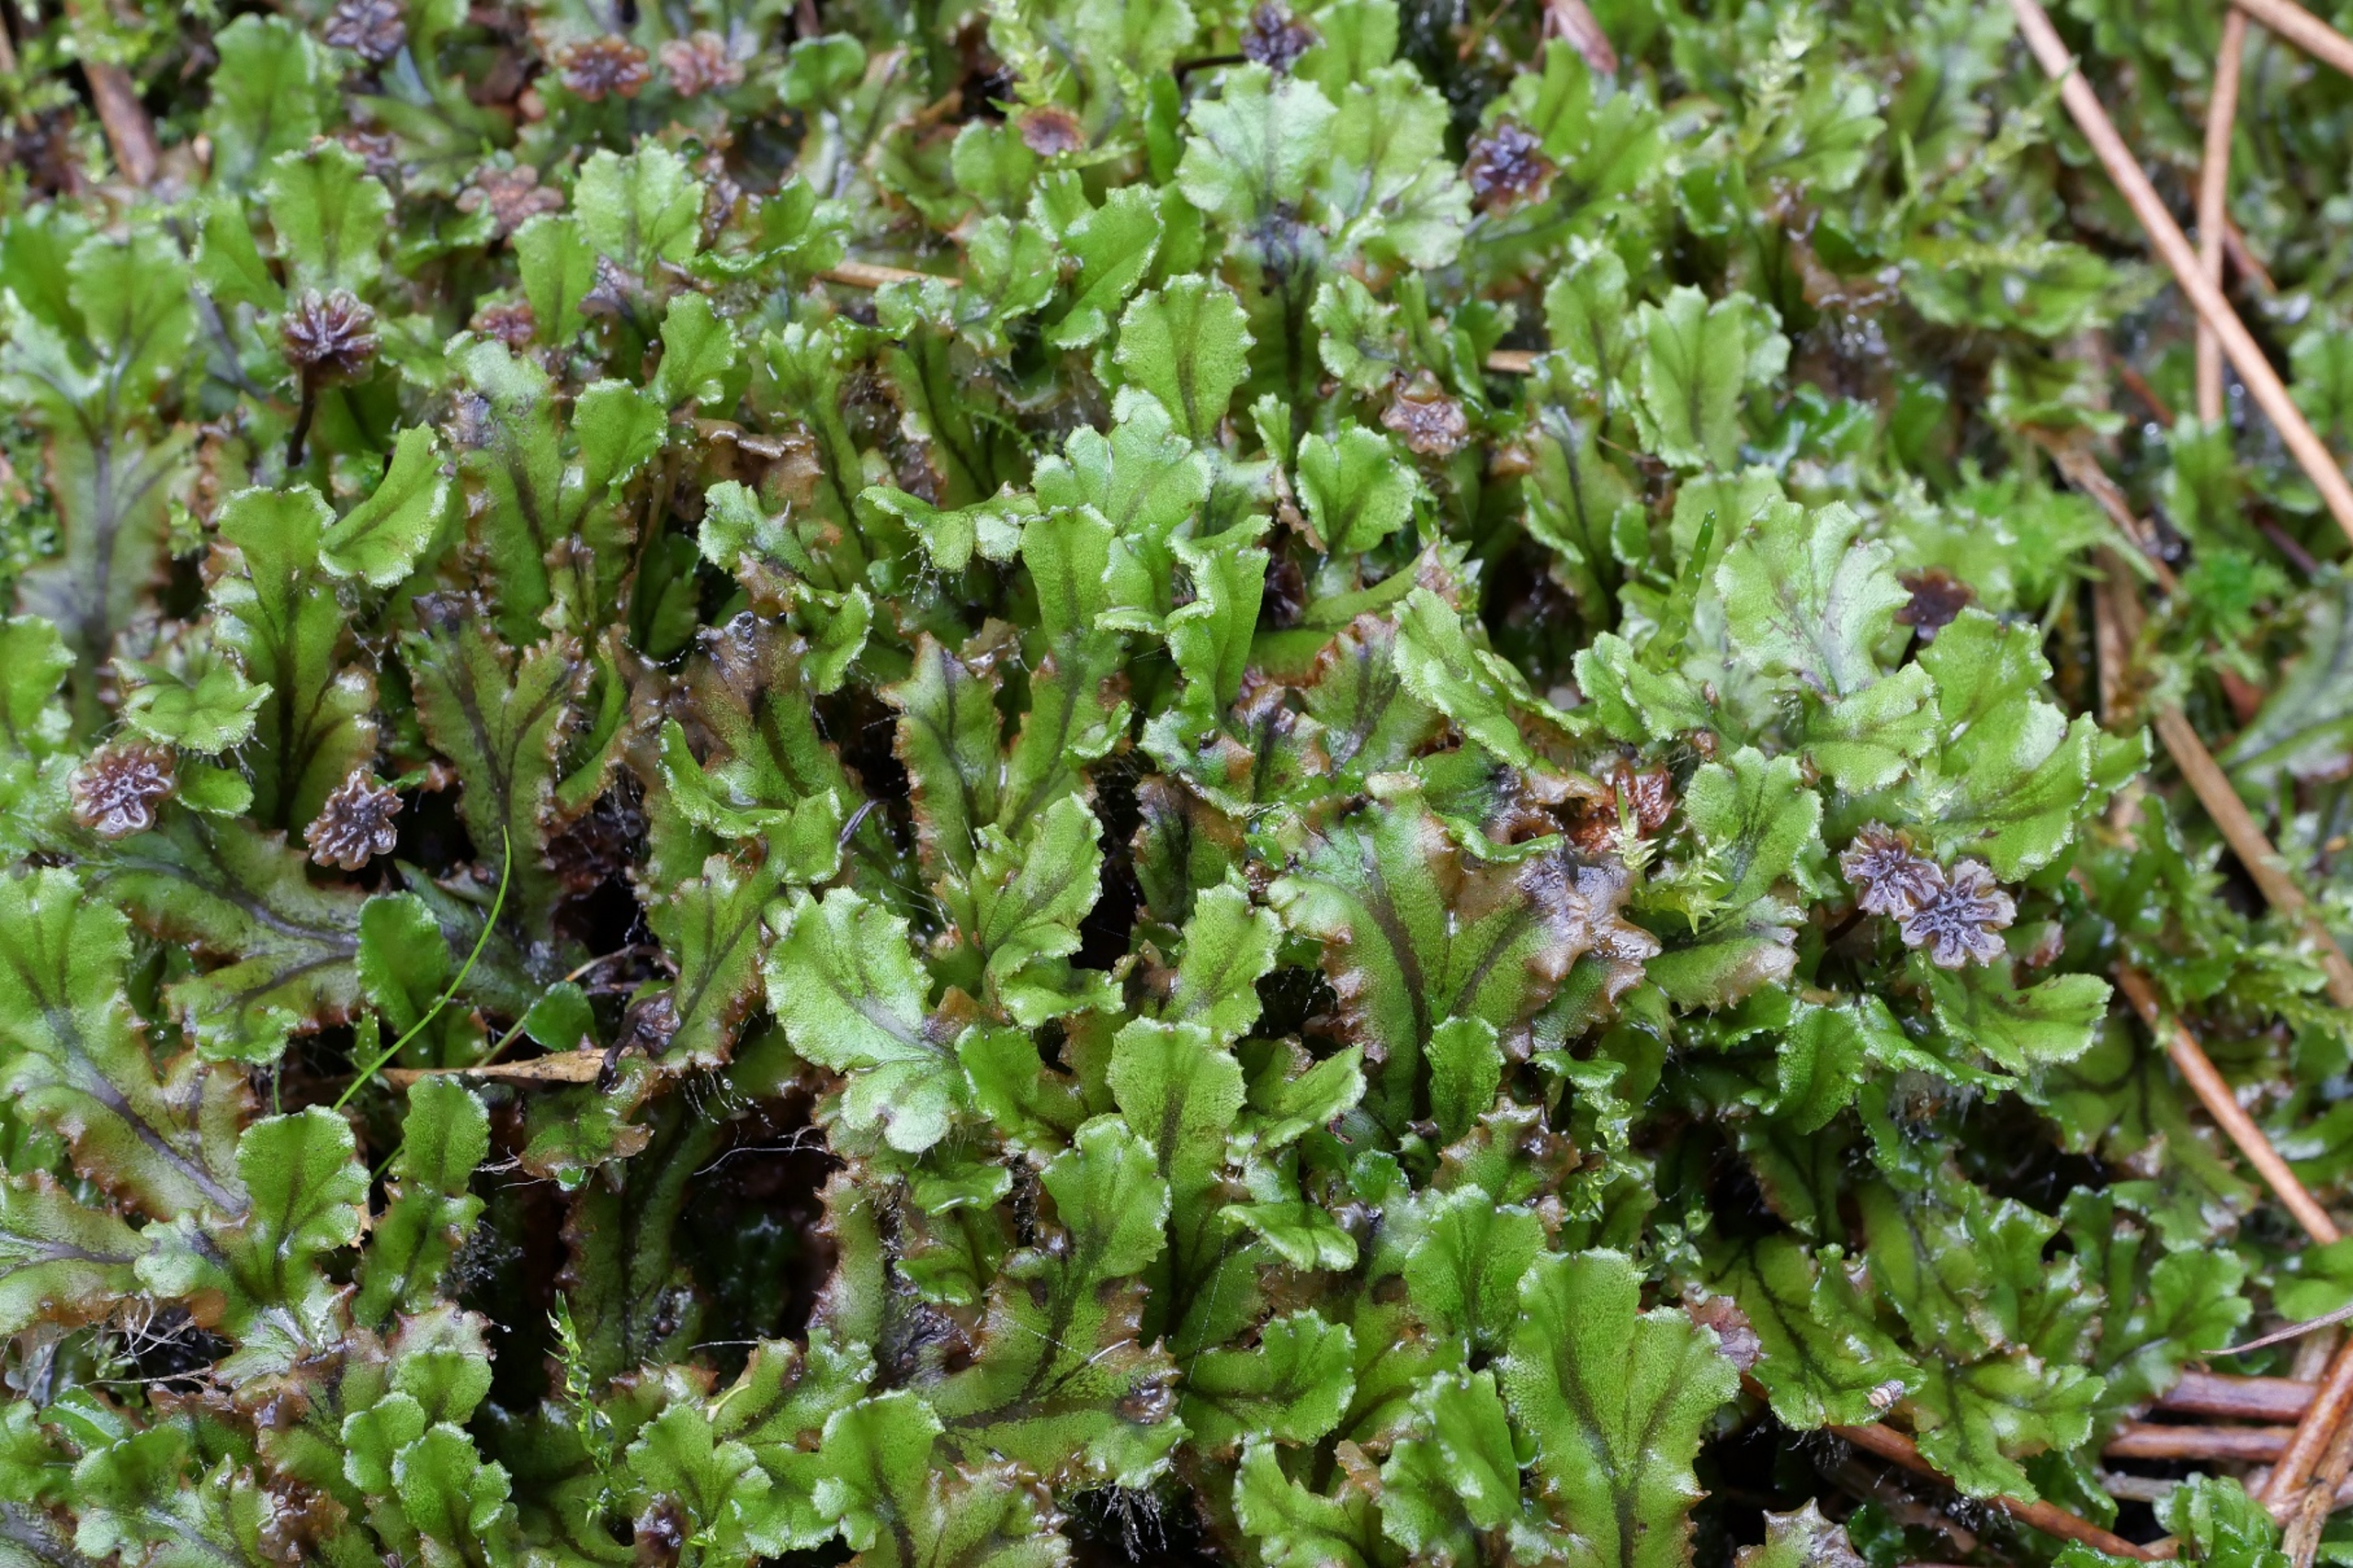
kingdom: Plantae
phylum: Marchantiophyta
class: Marchantiopsida
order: Marchantiales
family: Marchantiaceae
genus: Marchantia
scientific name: Marchantia polymorpha
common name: Mose-lungemos
